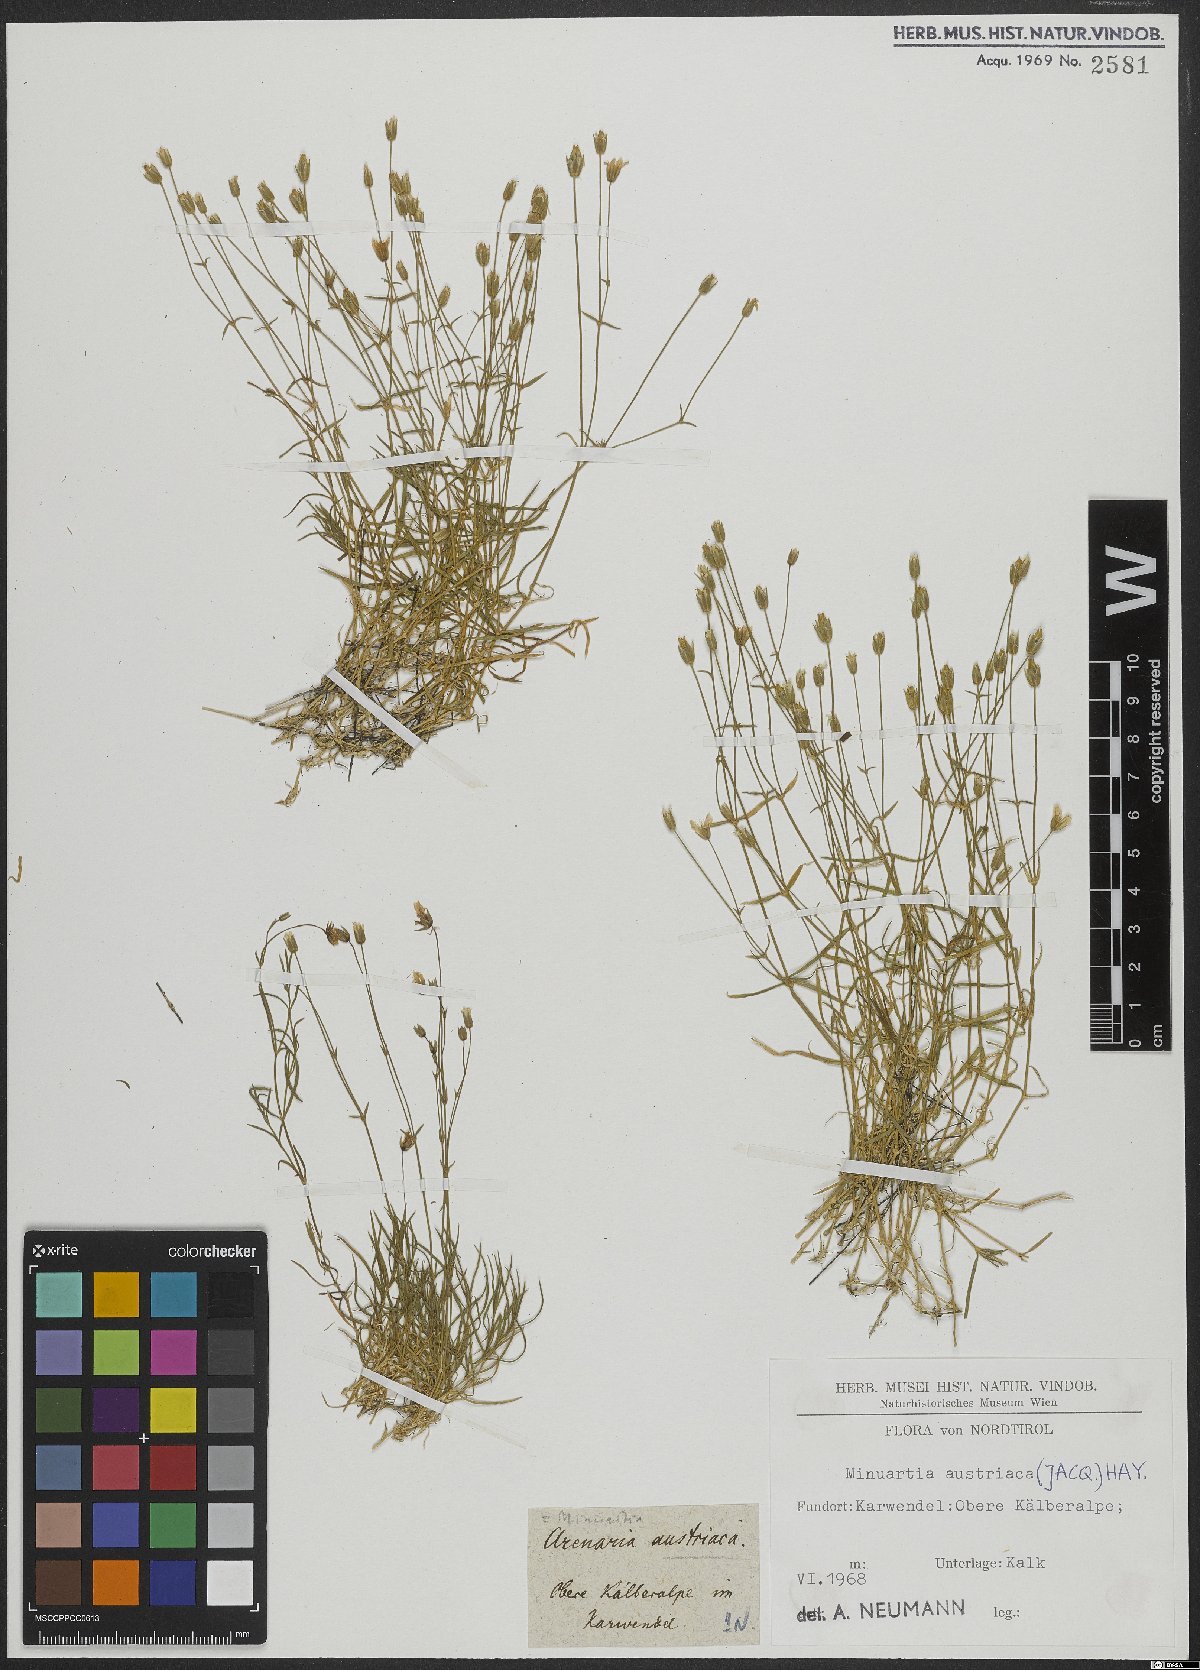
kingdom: Plantae
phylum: Tracheophyta
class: Magnoliopsida
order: Caryophyllales
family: Caryophyllaceae
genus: Sabulina
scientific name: Sabulina austriaca
